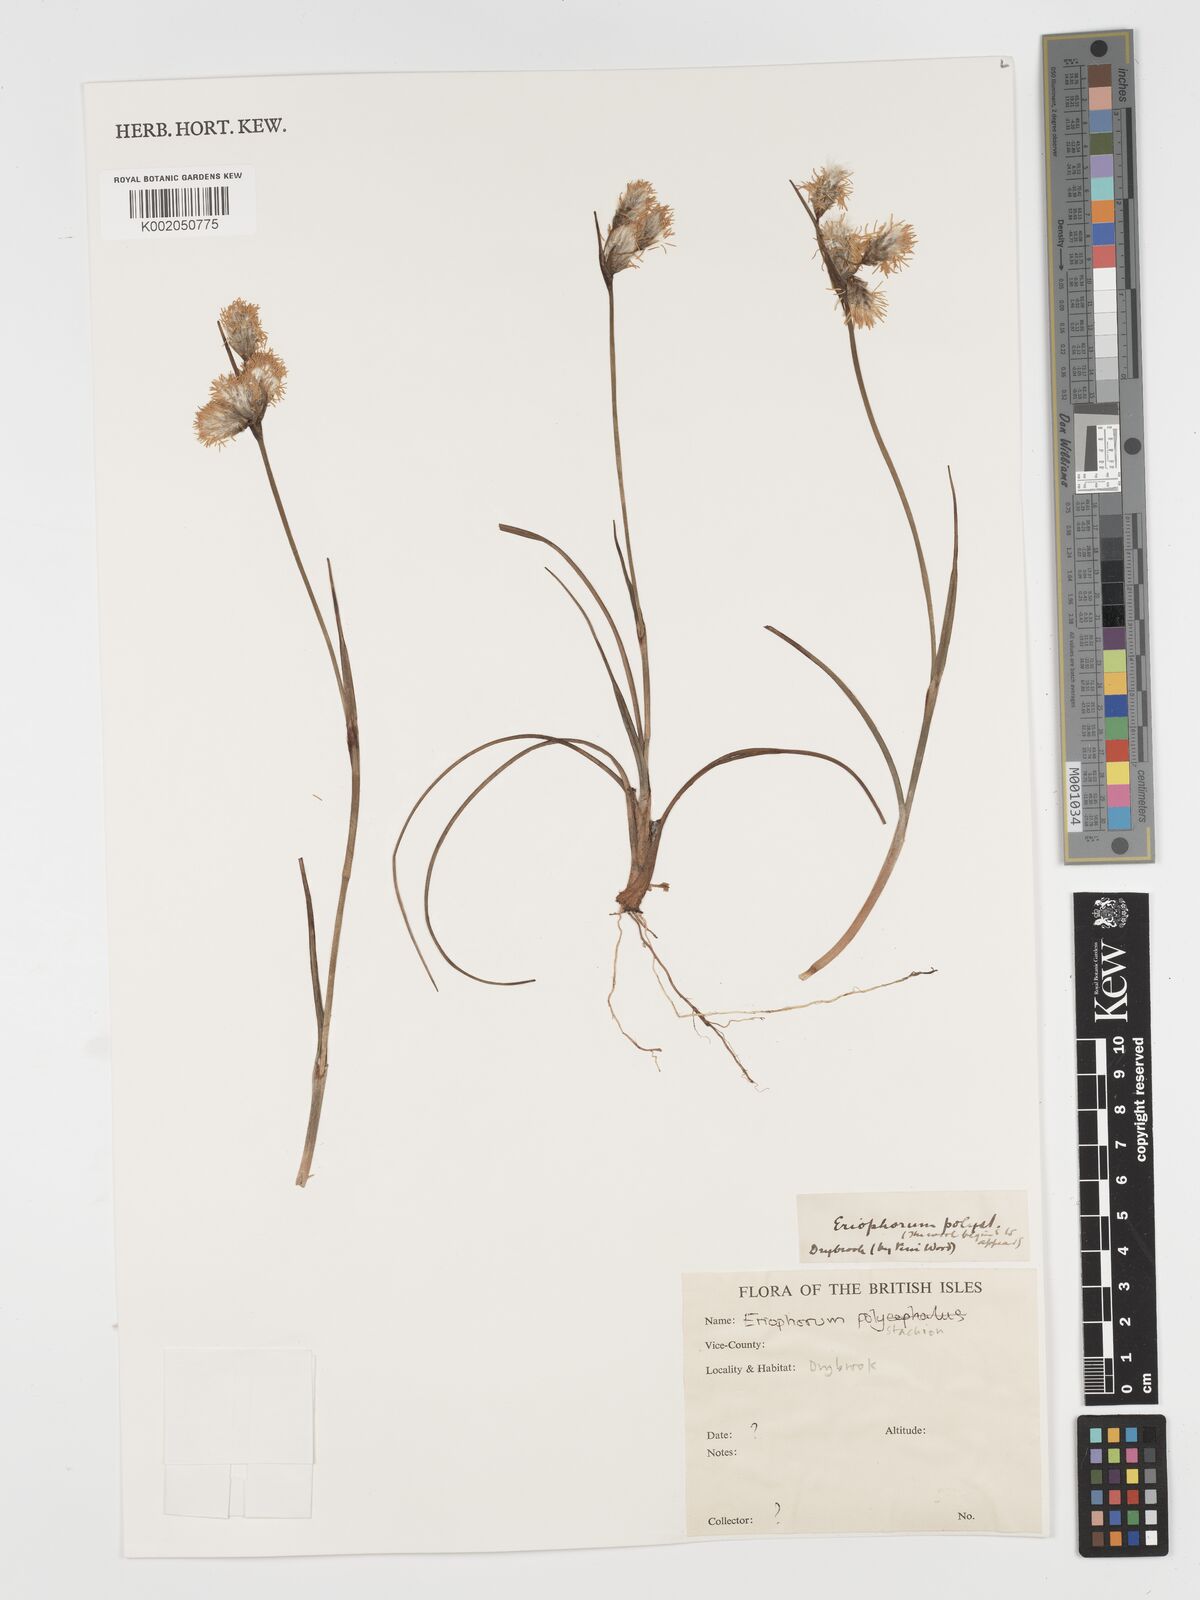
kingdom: Plantae
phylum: Tracheophyta
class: Liliopsida
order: Poales
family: Cyperaceae
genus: Eriophorum
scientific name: Eriophorum angustifolium
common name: Common cottongrass
